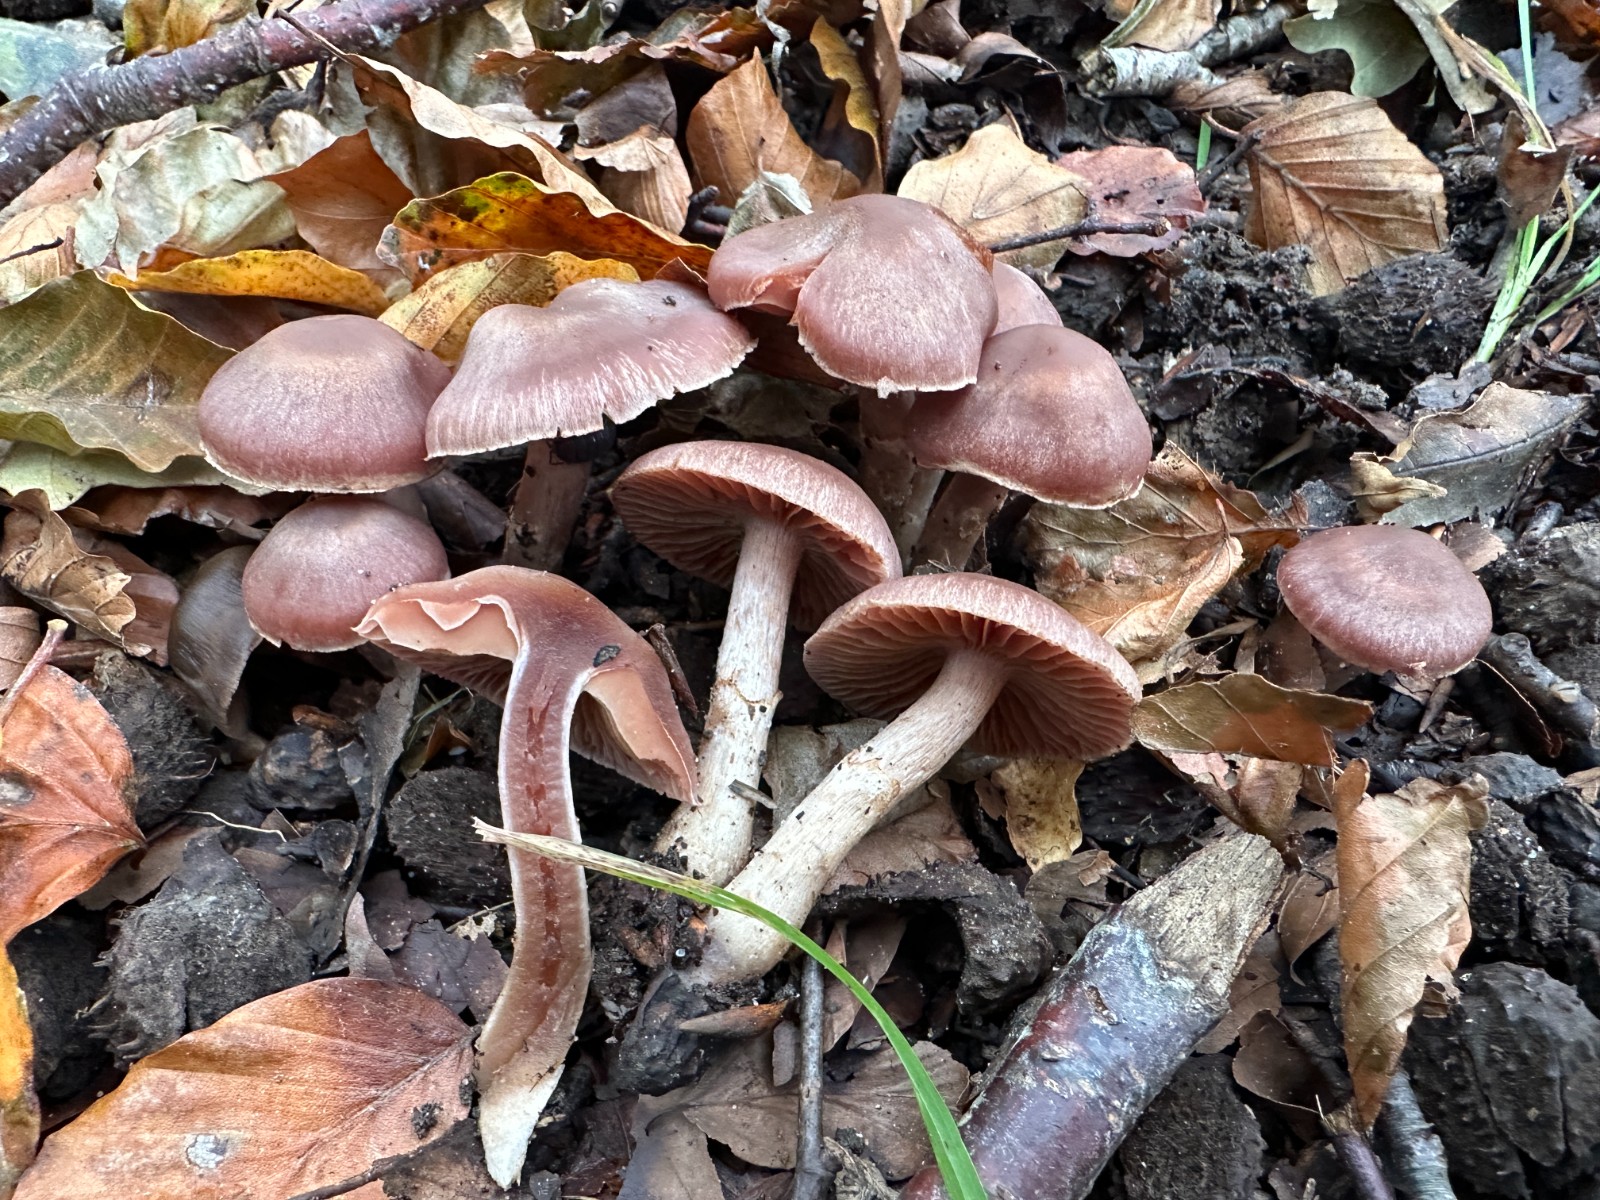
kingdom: Fungi
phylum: Basidiomycota
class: Agaricomycetes
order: Agaricales
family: Cortinariaceae
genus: Cortinarius
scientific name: Cortinarius
